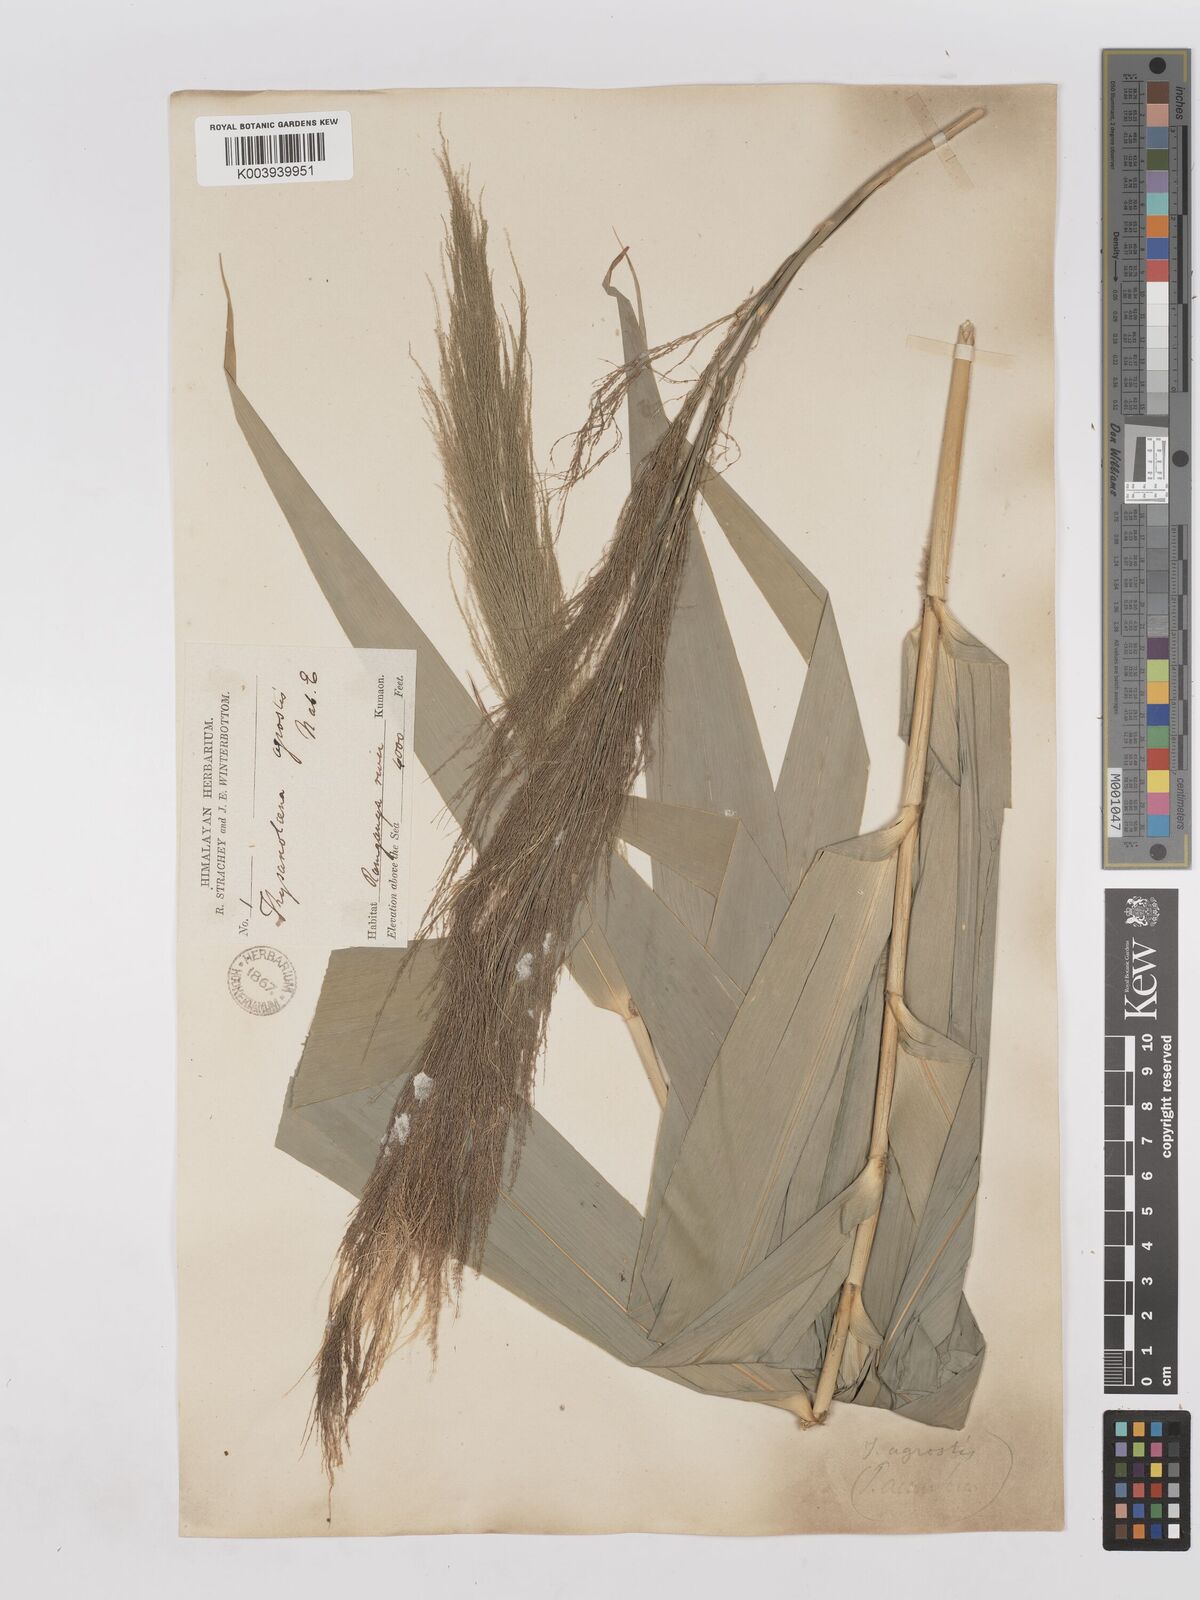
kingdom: Plantae
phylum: Tracheophyta
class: Liliopsida
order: Poales
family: Poaceae
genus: Thysanolaena
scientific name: Thysanolaena latifolia
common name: Tiger grass
